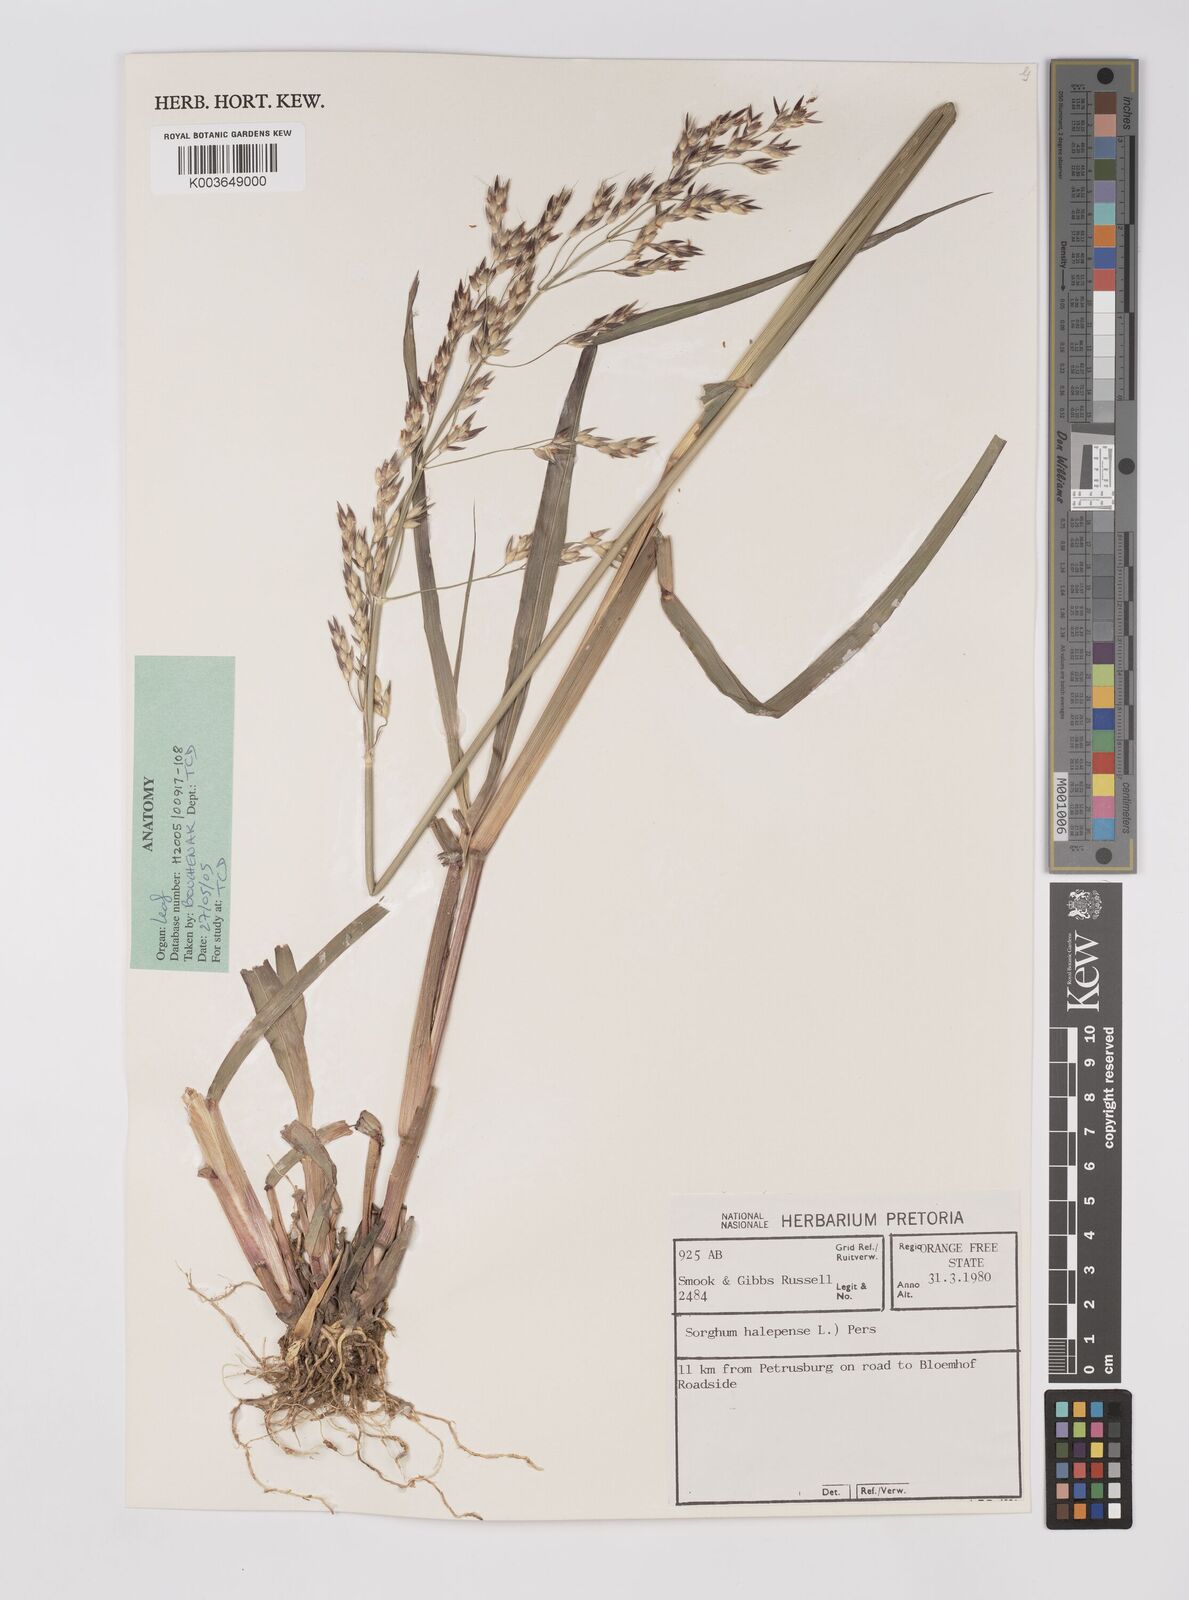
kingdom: Plantae
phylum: Tracheophyta
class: Liliopsida
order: Poales
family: Poaceae
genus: Sorghum
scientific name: Sorghum halepense
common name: Johnson-grass
